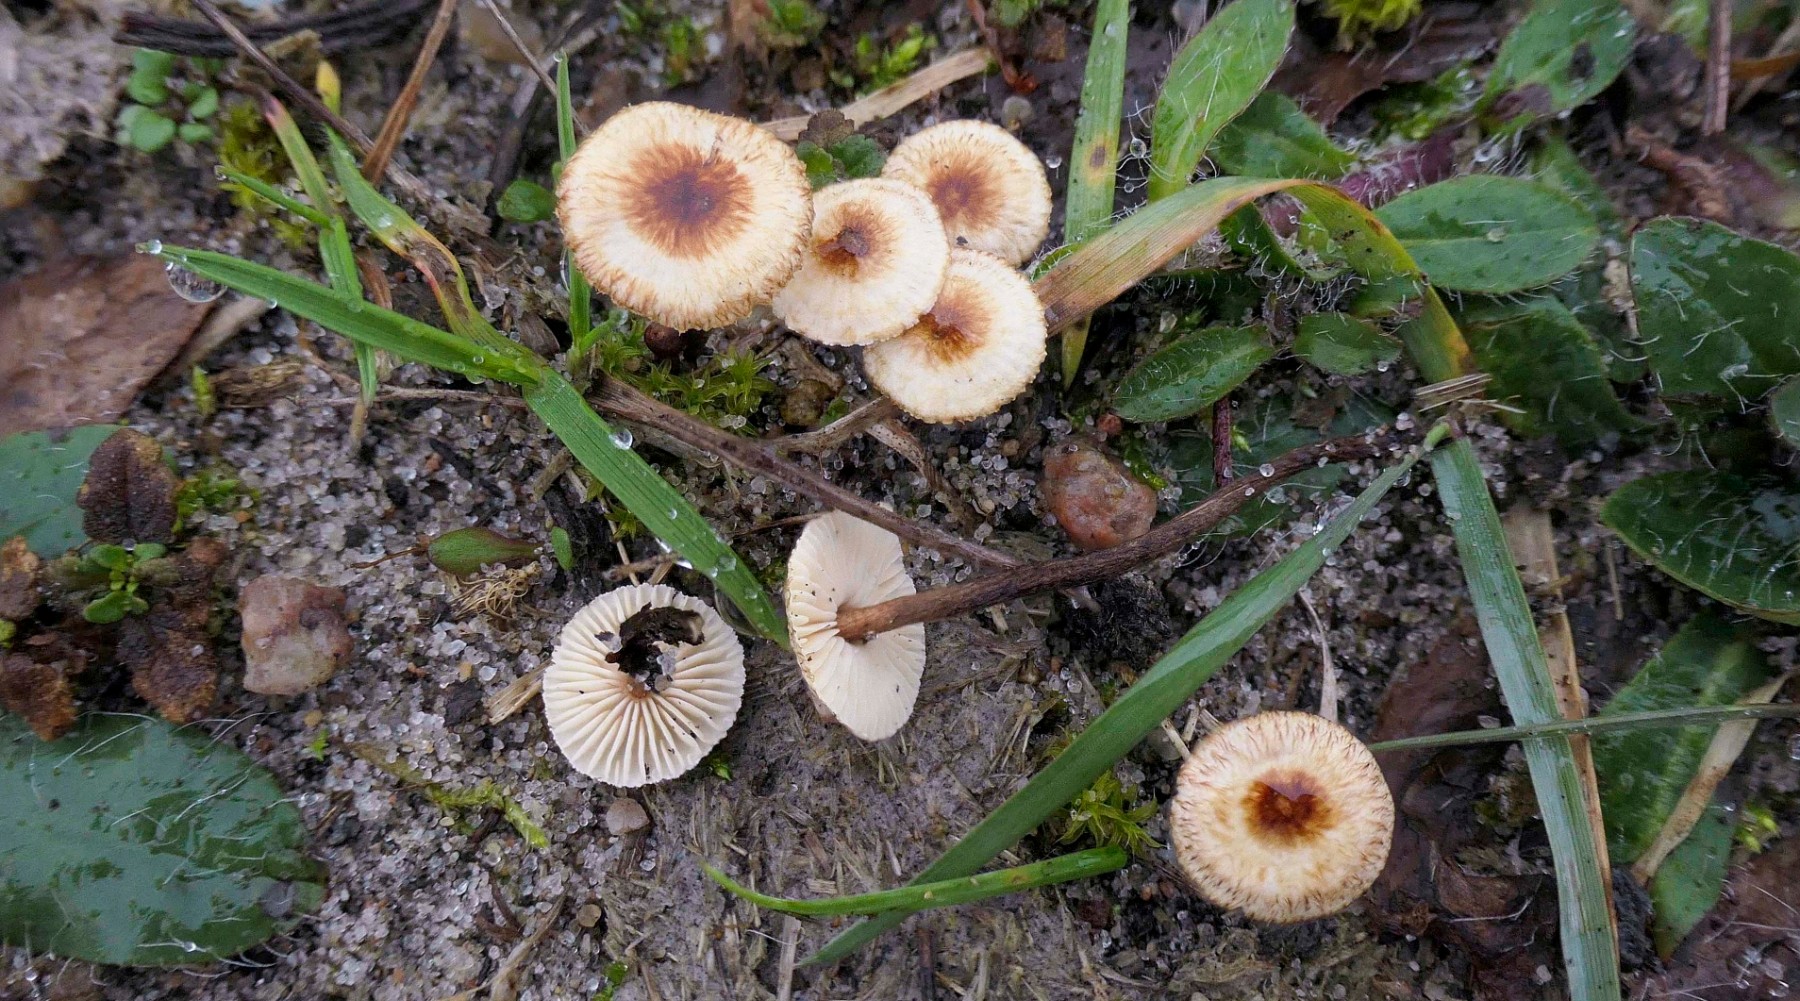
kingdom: Fungi
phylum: Basidiomycota
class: Agaricomycetes
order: Agaricales
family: Marasmiaceae
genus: Crinipellis
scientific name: Crinipellis scabella
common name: børstefod
